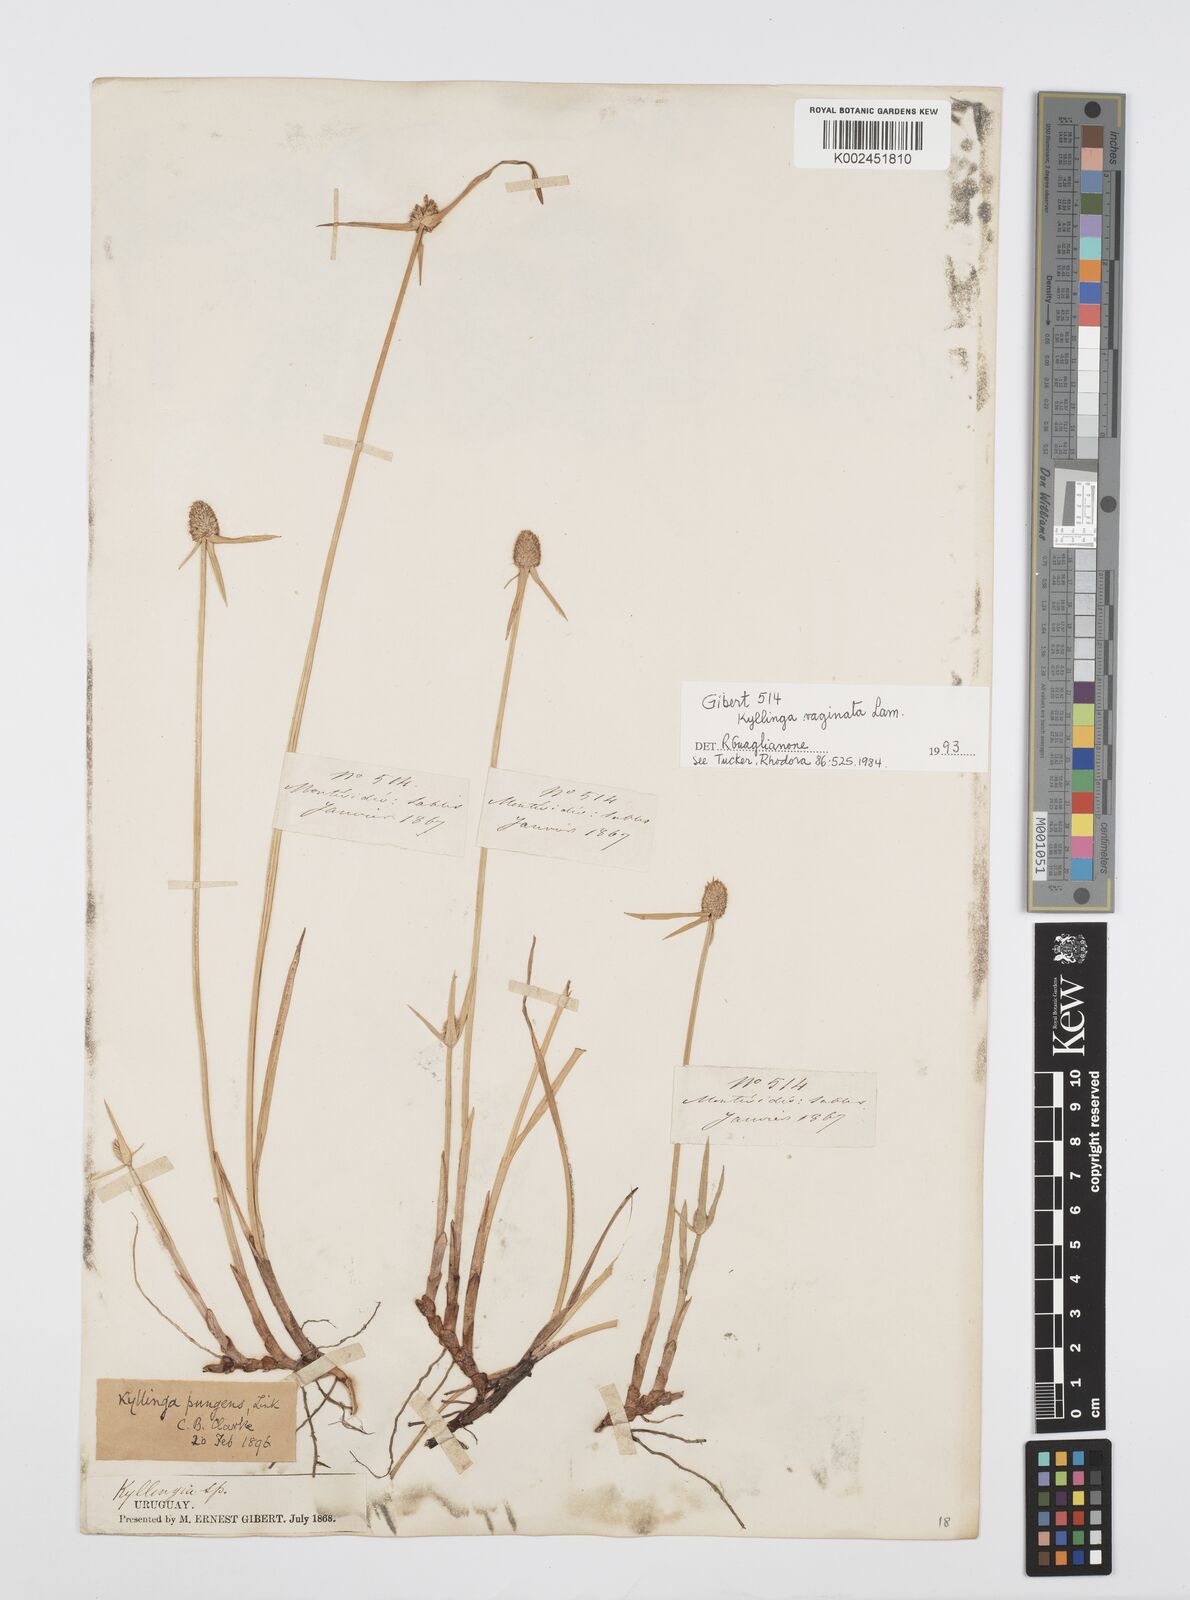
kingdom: Plantae
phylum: Tracheophyta
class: Liliopsida
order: Poales
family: Cyperaceae
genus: Cyperus
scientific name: Cyperus obtusatus
